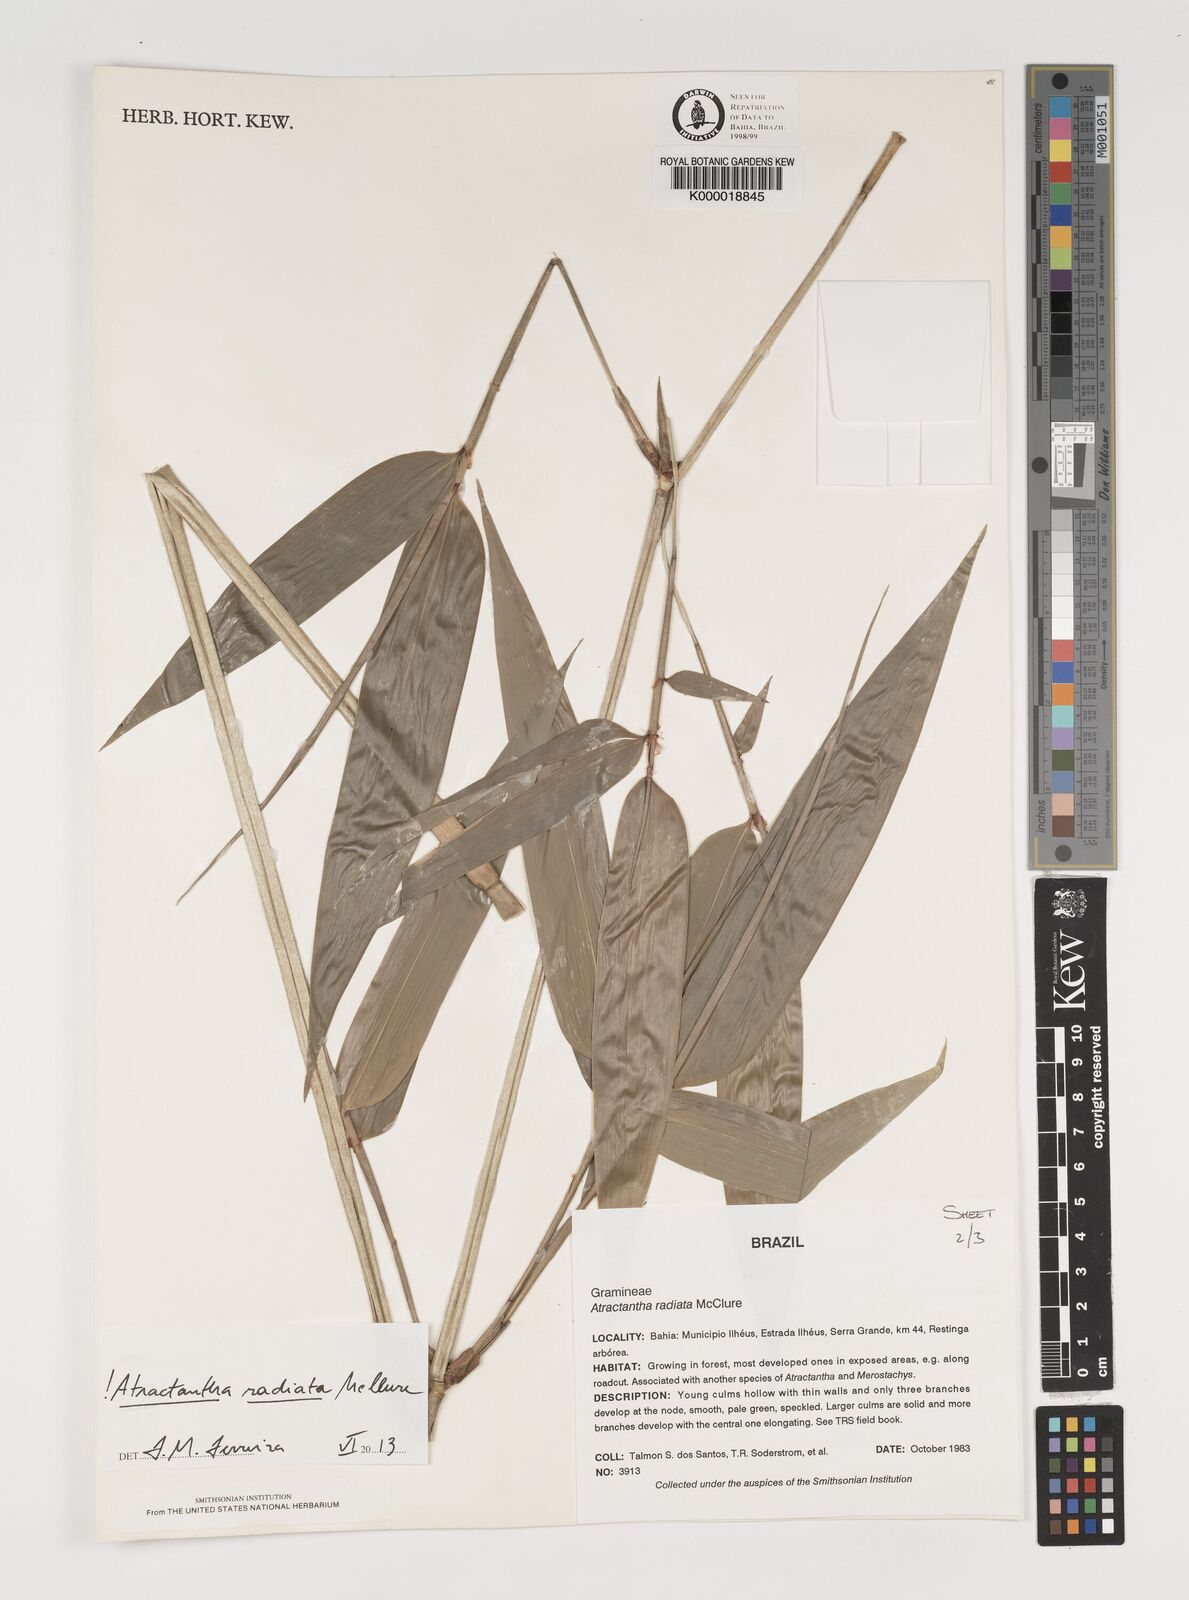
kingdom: Plantae
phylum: Tracheophyta
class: Liliopsida
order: Poales
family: Poaceae
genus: Atractantha
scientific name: Atractantha radiata
